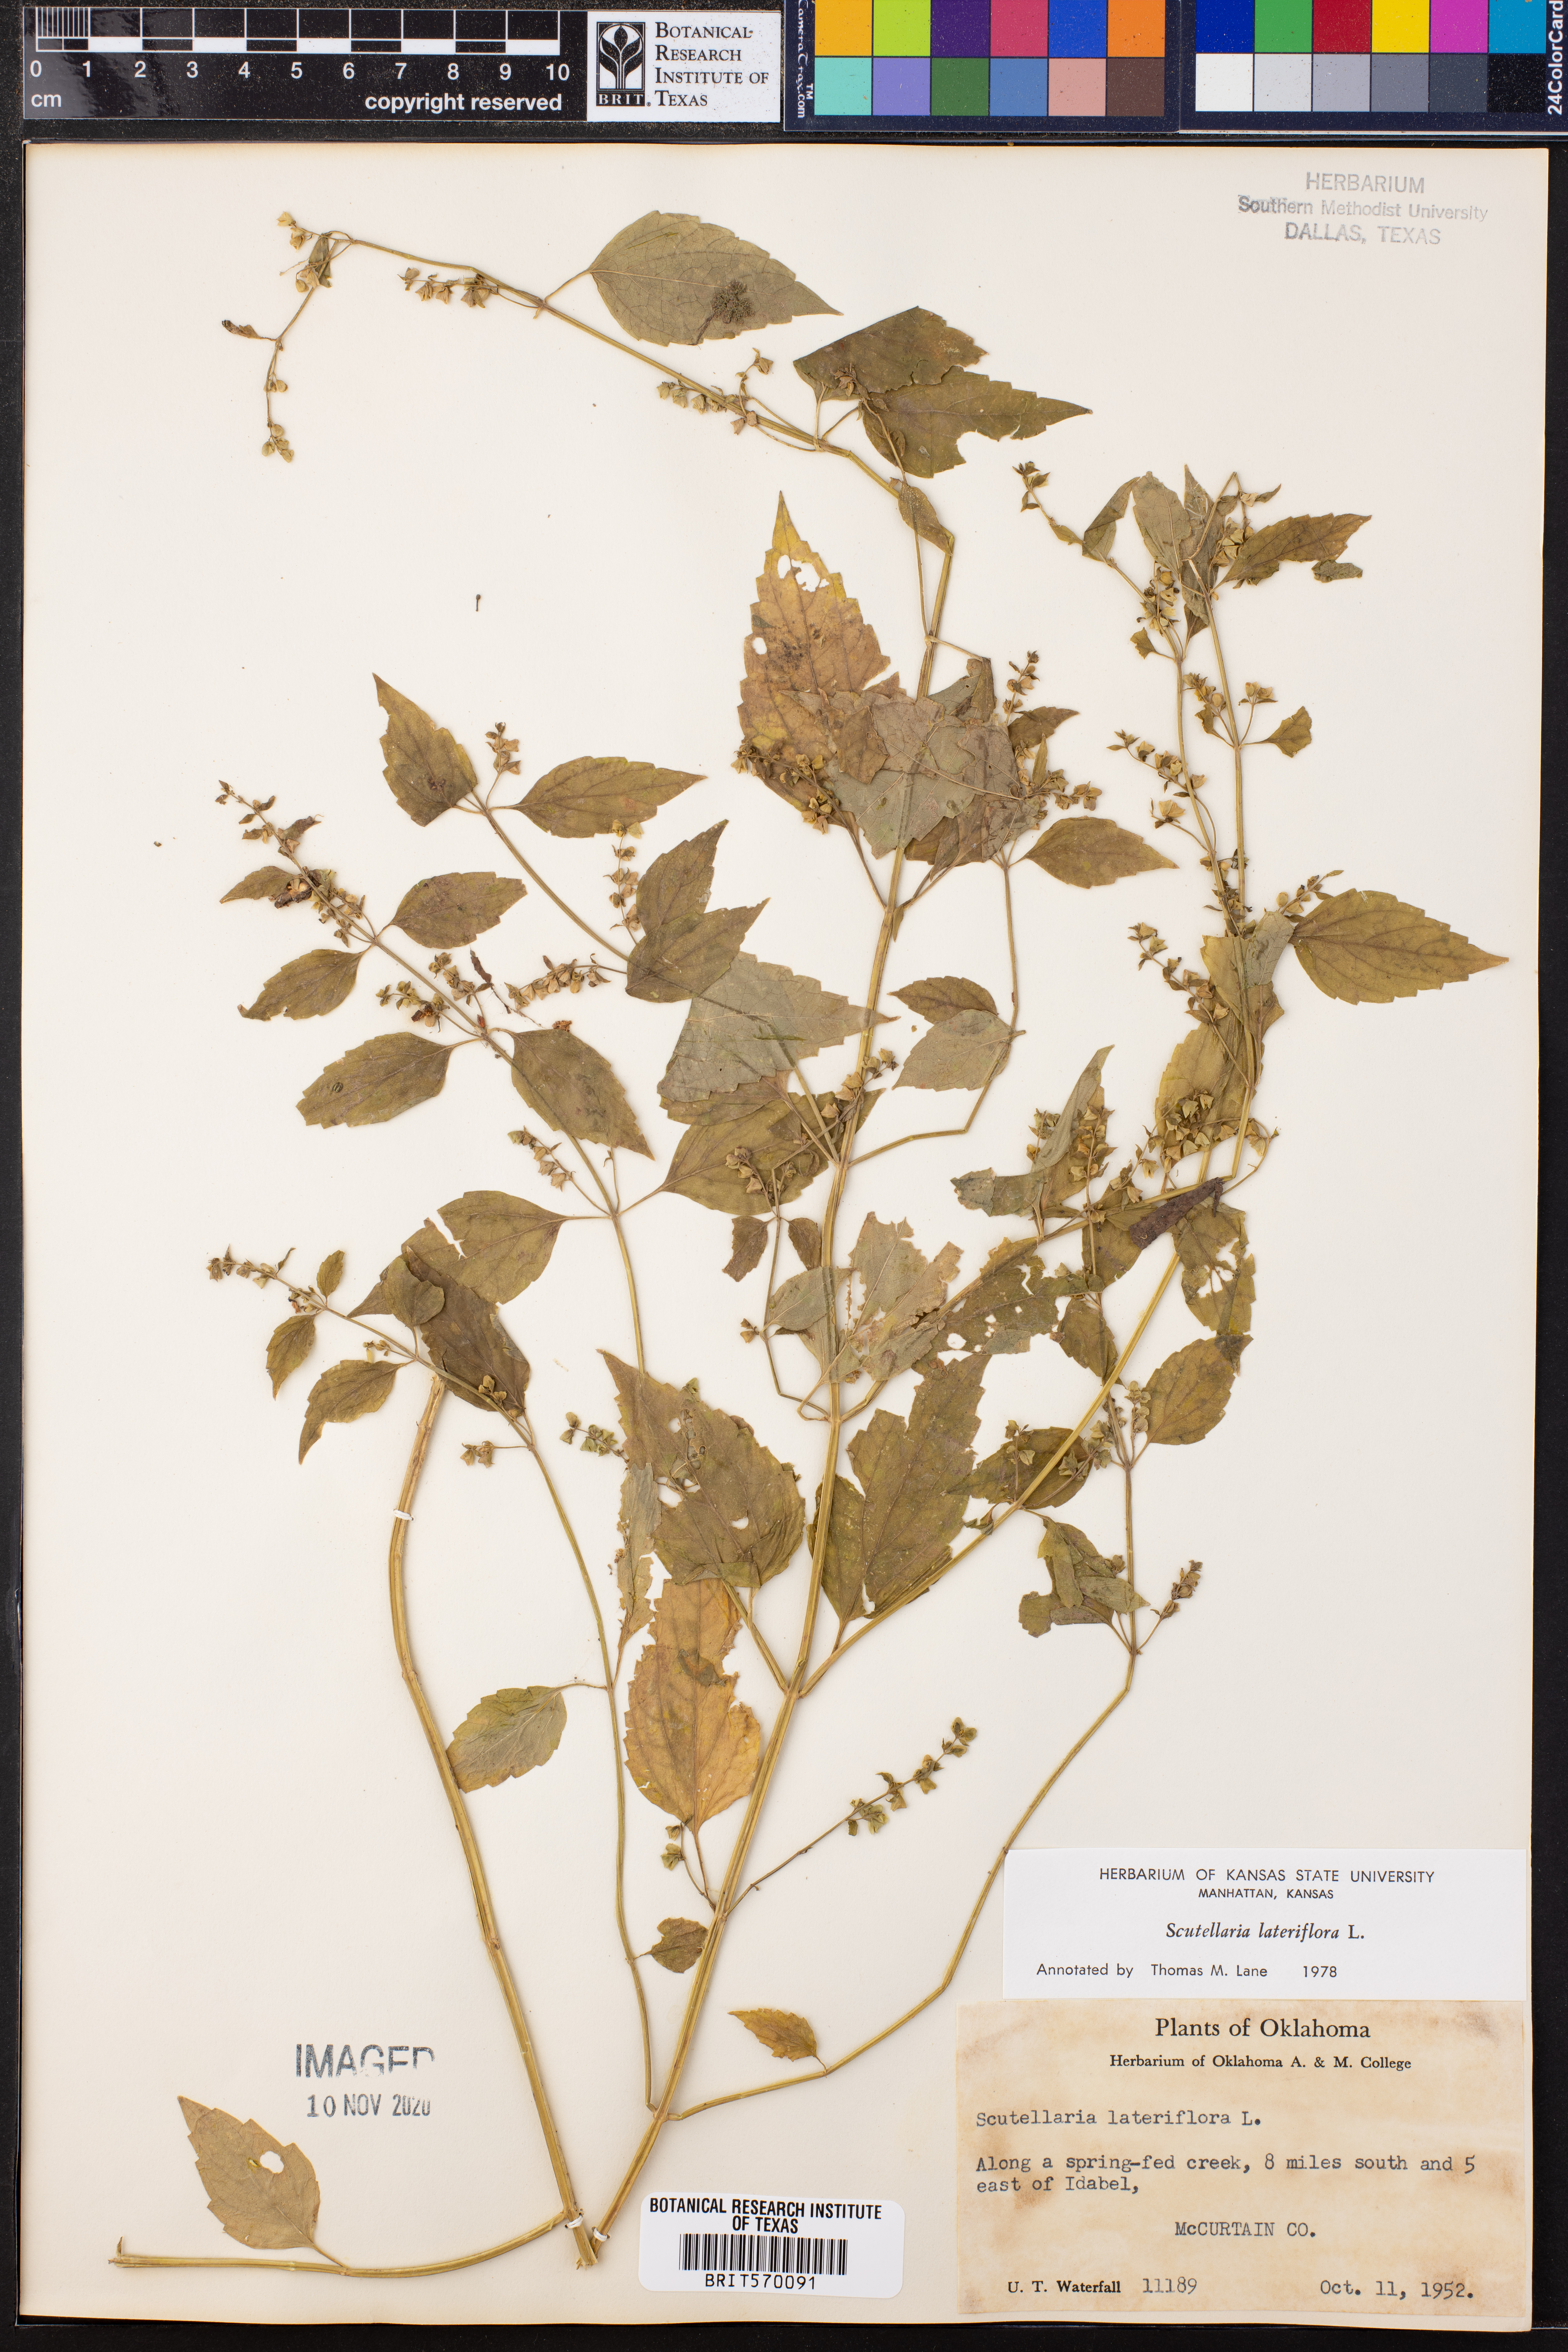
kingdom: Plantae
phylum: Tracheophyta
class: Magnoliopsida
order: Lamiales
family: Lamiaceae
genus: Scutellaria
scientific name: Scutellaria lateriflora
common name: Blue skullcap
